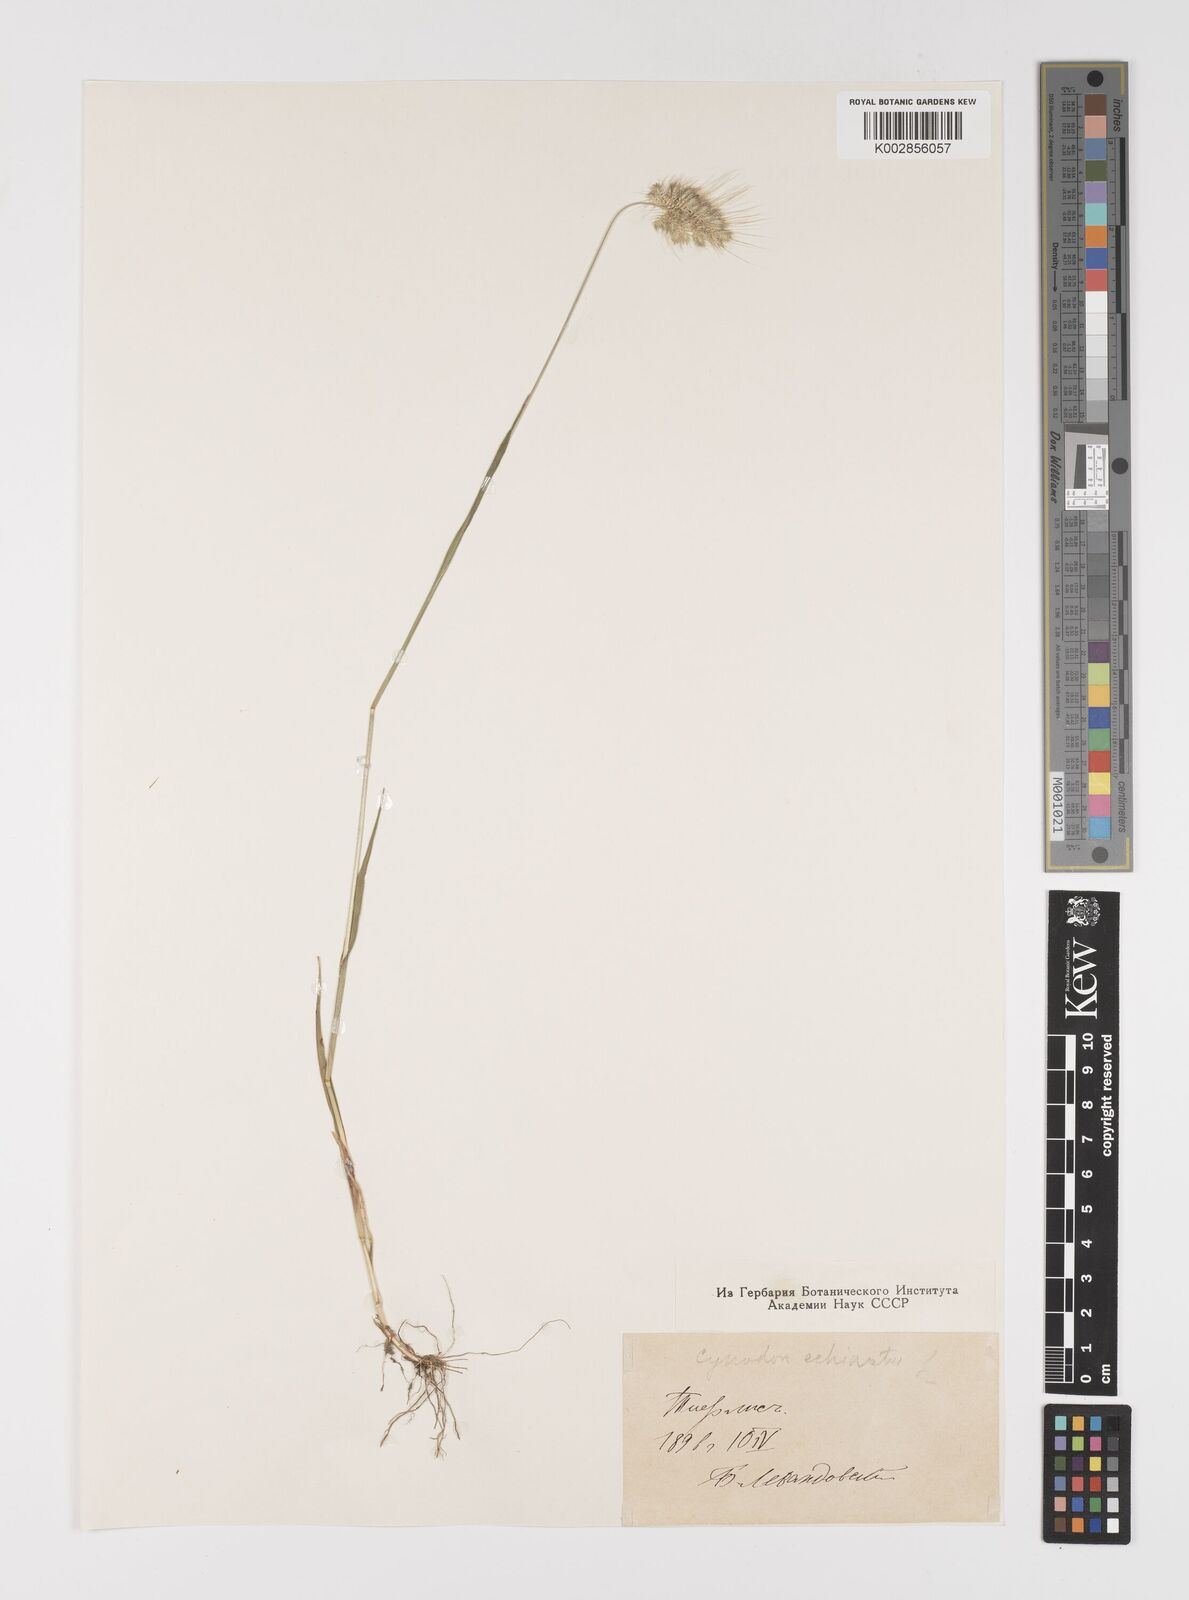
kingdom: Plantae
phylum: Tracheophyta
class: Liliopsida
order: Poales
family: Poaceae
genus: Cynosurus
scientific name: Cynosurus echinatus
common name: Rough dog's-tail
